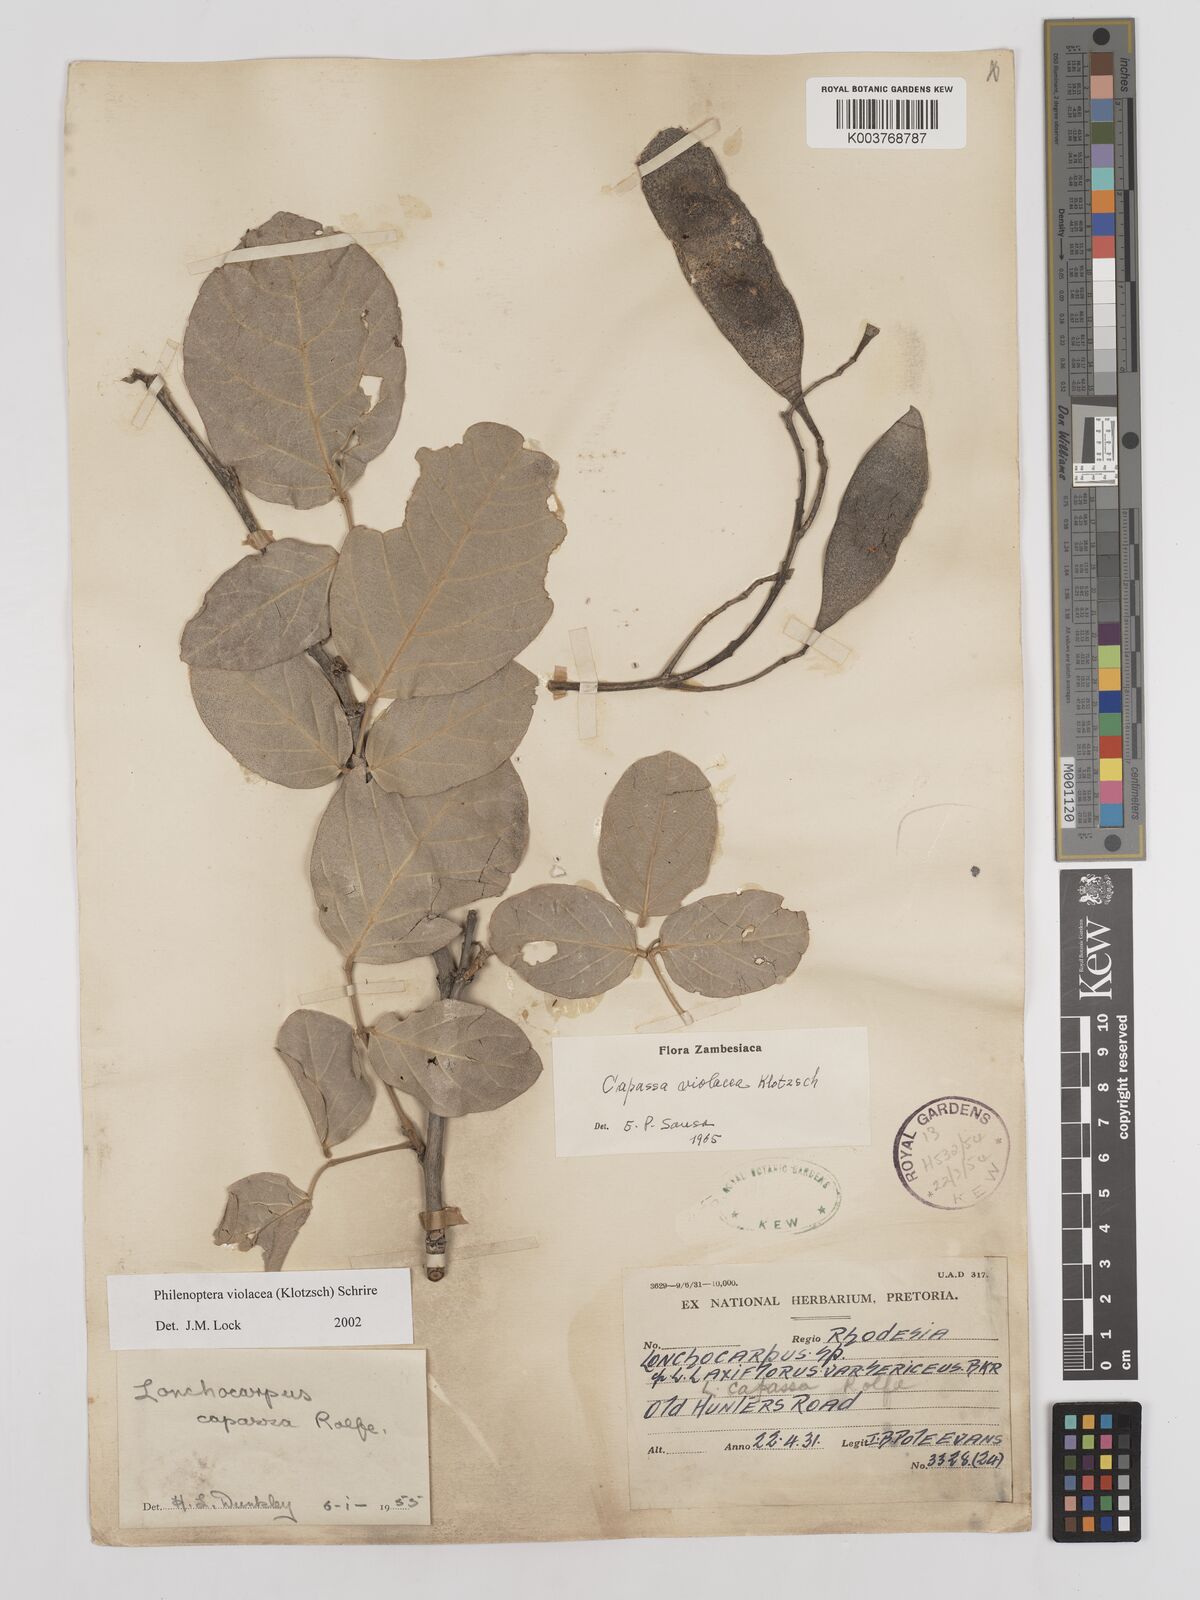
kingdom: Plantae
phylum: Tracheophyta
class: Magnoliopsida
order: Fabales
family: Fabaceae
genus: Philenoptera
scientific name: Philenoptera violacea
